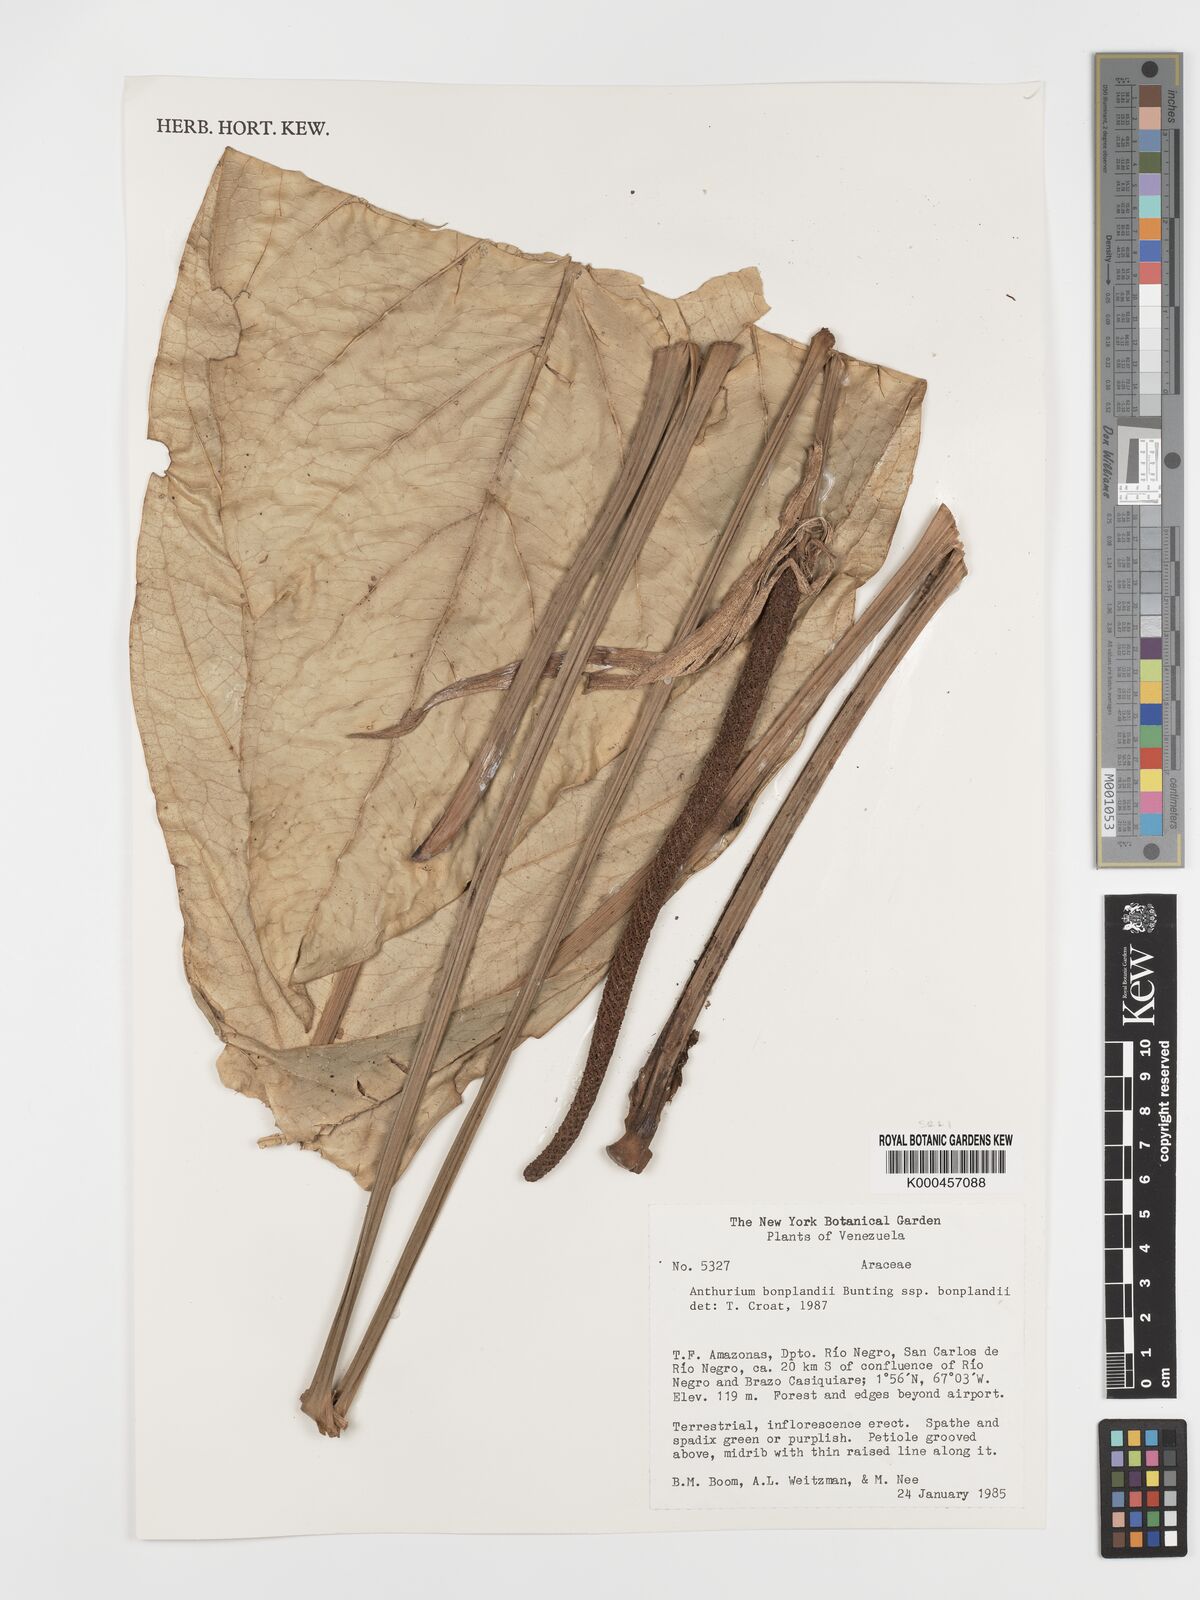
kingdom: Plantae
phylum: Tracheophyta
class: Liliopsida
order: Alismatales
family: Araceae
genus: Anthurium
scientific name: Anthurium bonplandii
